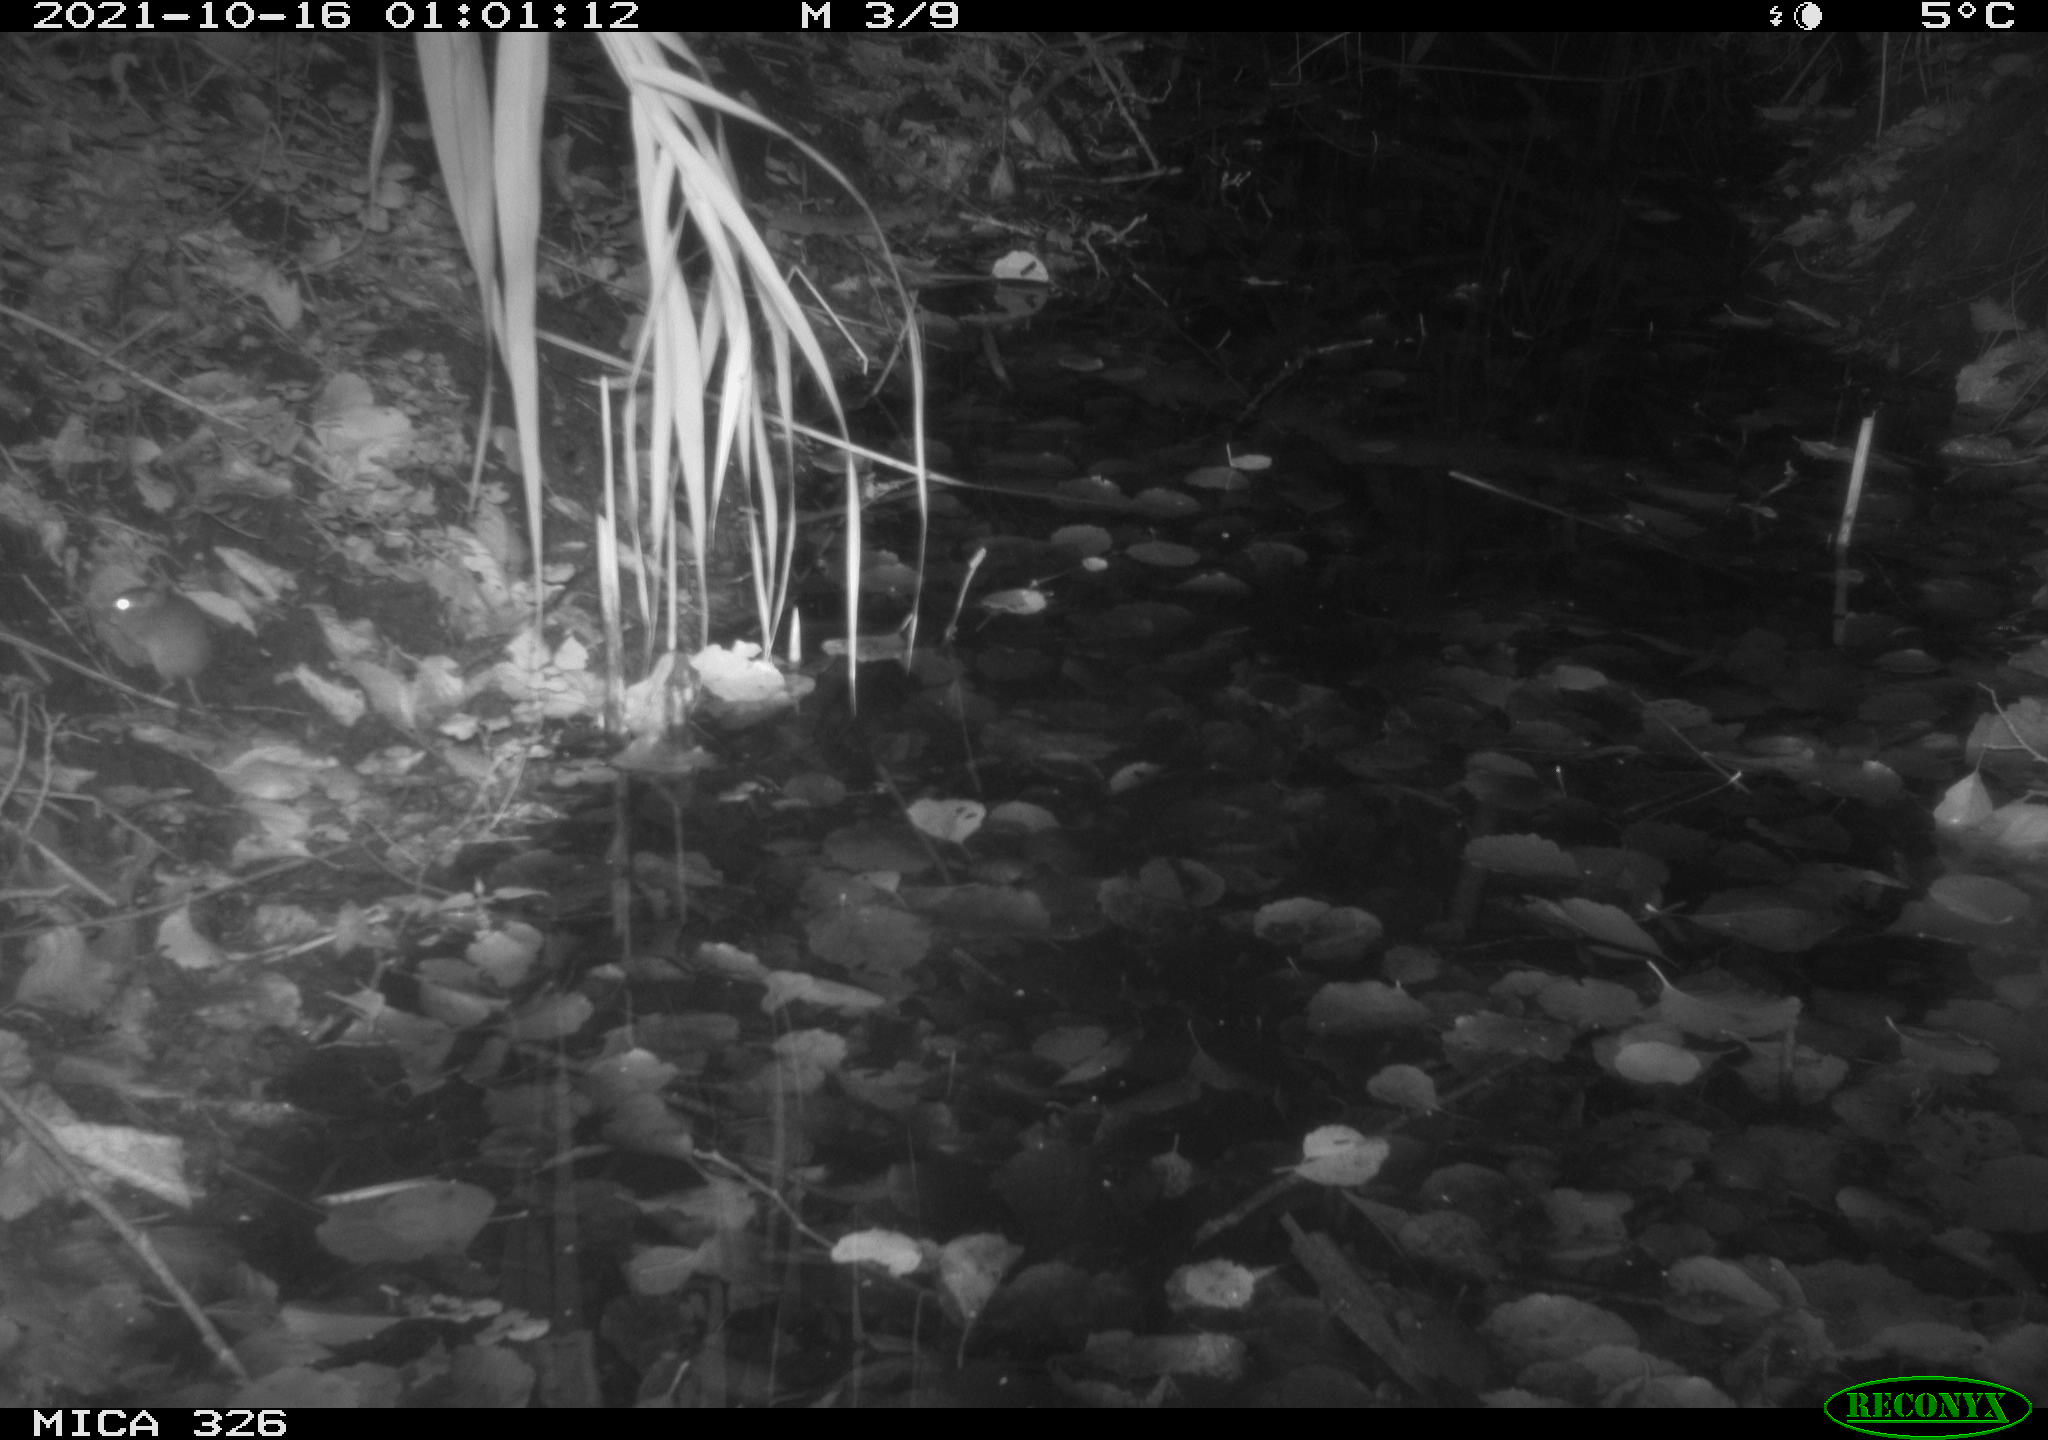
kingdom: Animalia
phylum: Chordata
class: Mammalia
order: Rodentia
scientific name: Rodentia
